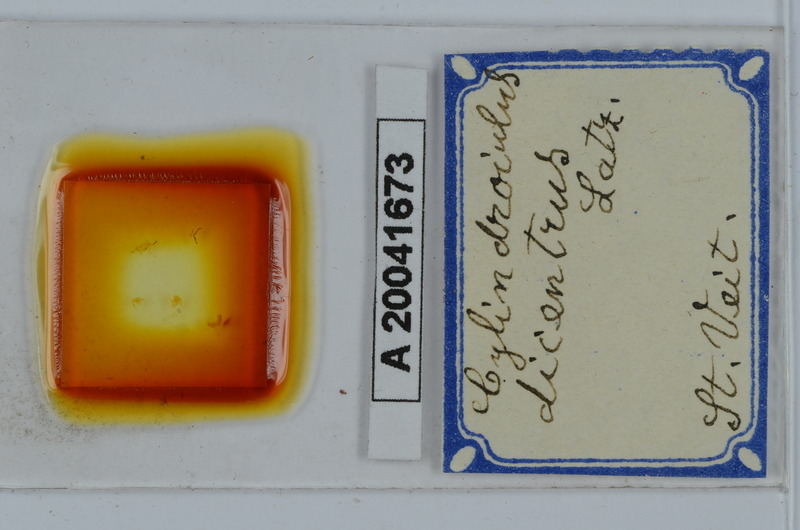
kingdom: Animalia
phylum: Arthropoda
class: Diplopoda
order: Julida
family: Julidae
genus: Allajulus
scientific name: Allajulus dicentrus
